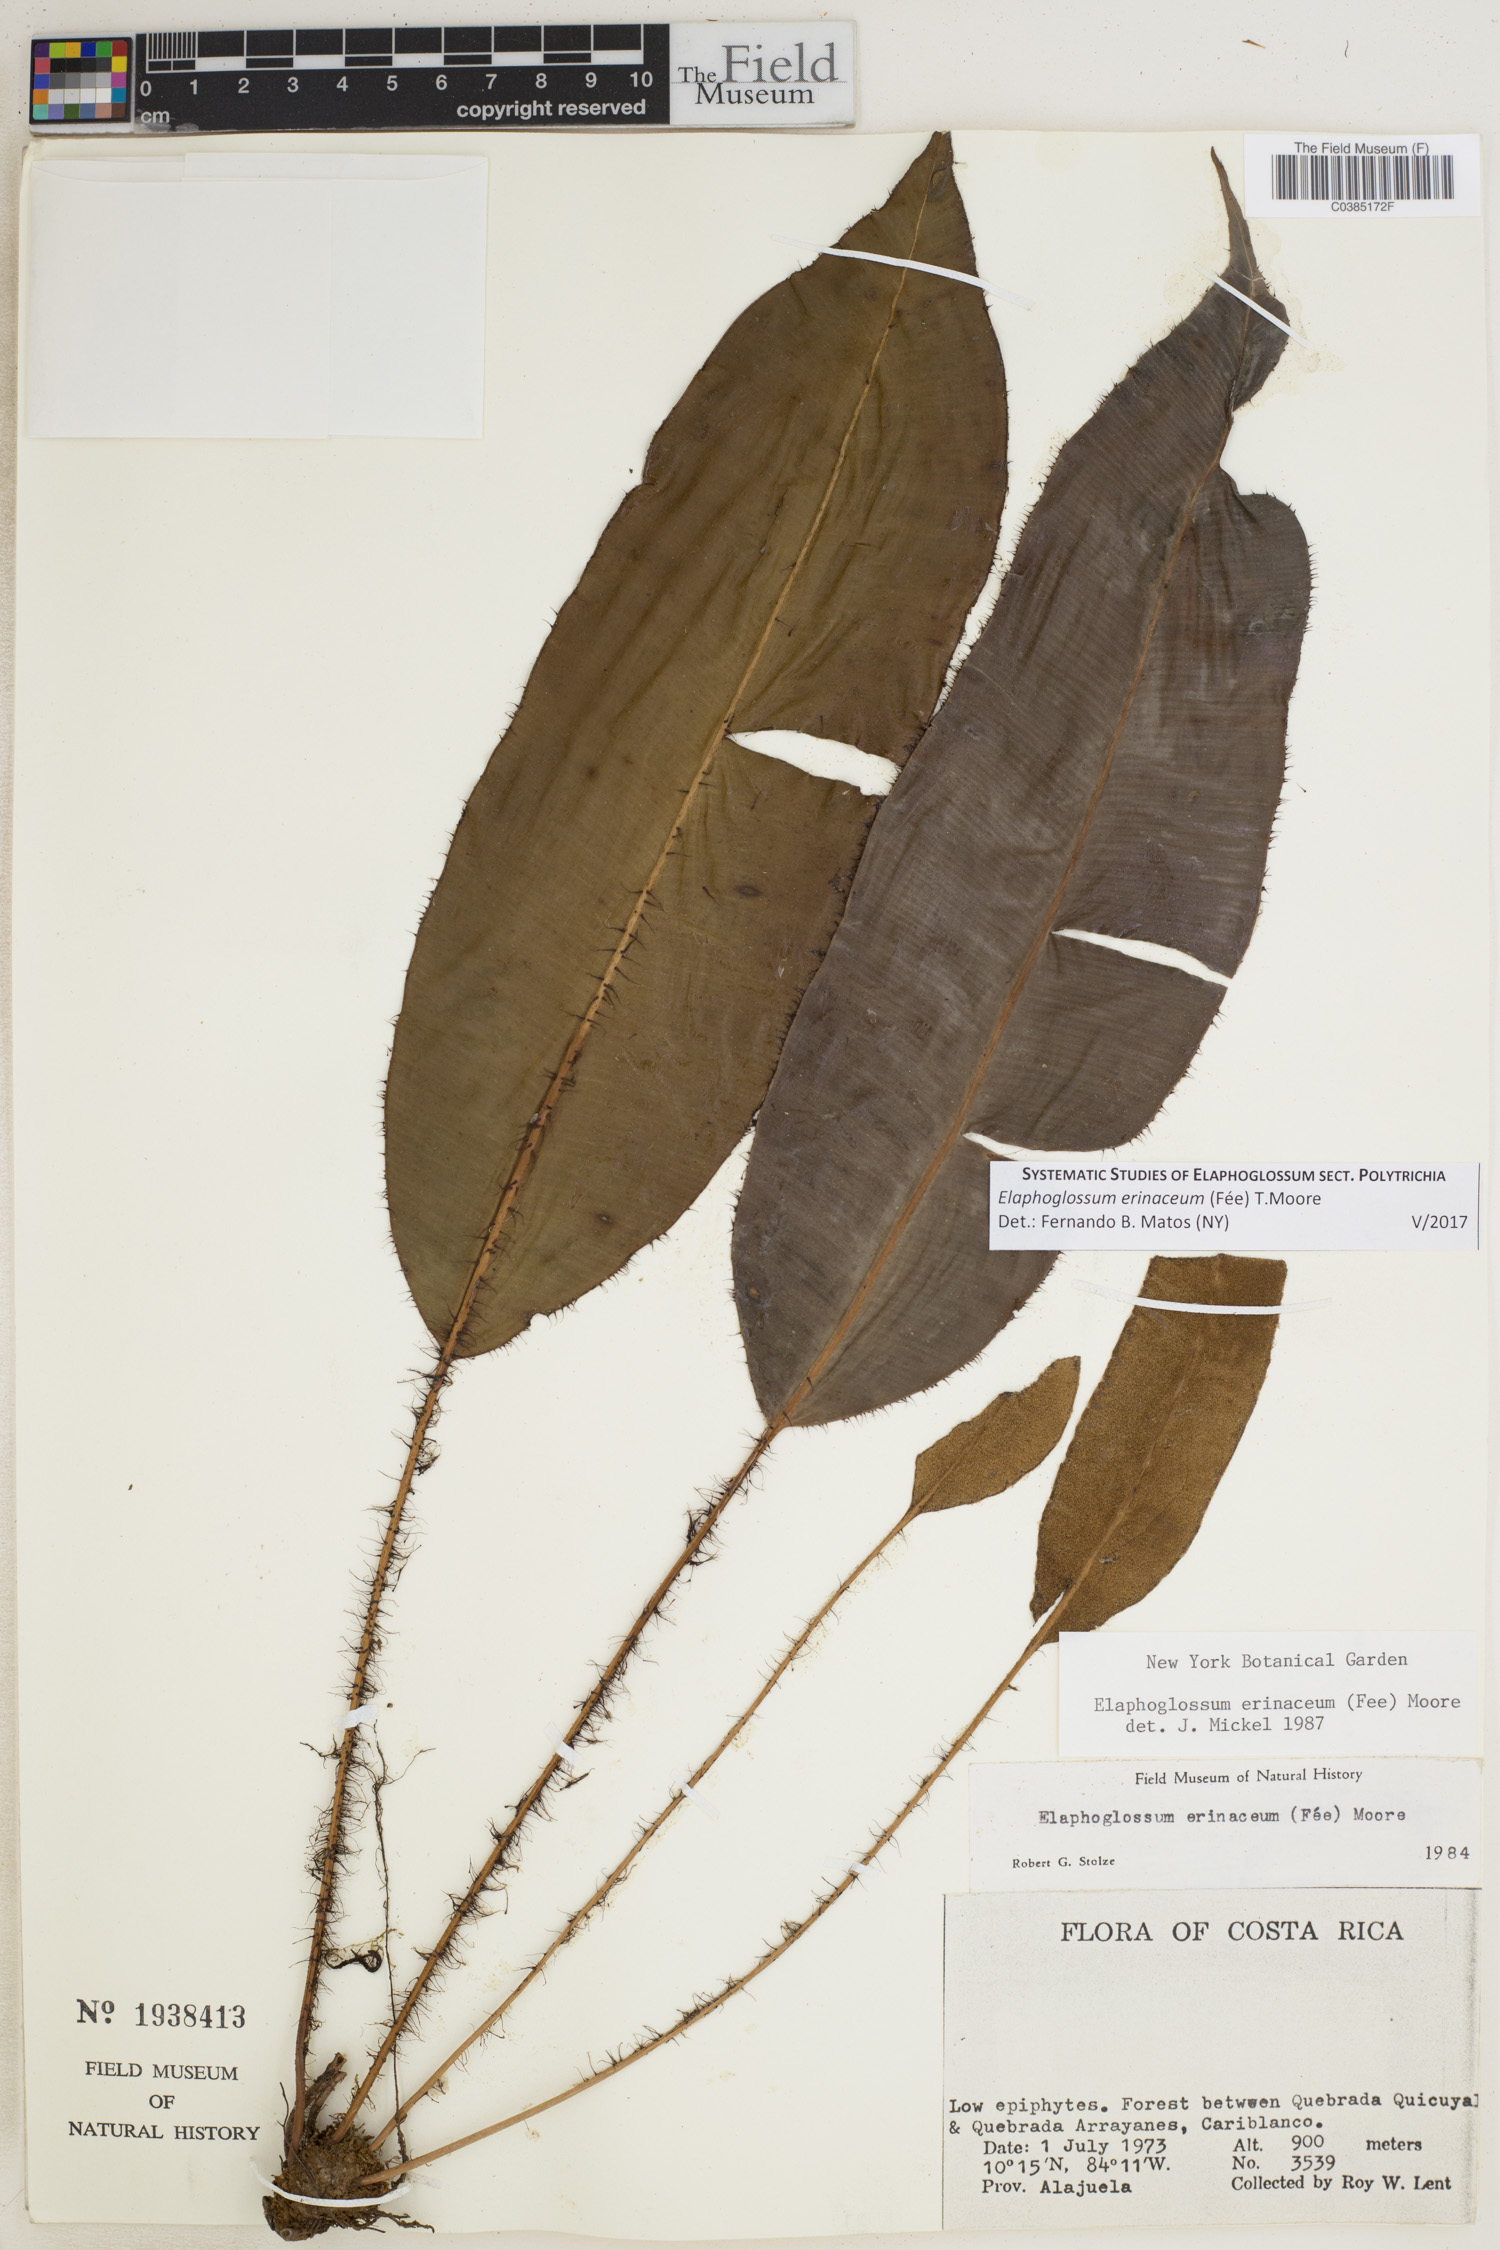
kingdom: Plantae
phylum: Tracheophyta
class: Polypodiopsida
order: Polypodiales
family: Dryopteridaceae
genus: Elaphoglossum
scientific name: Elaphoglossum erinaceum
